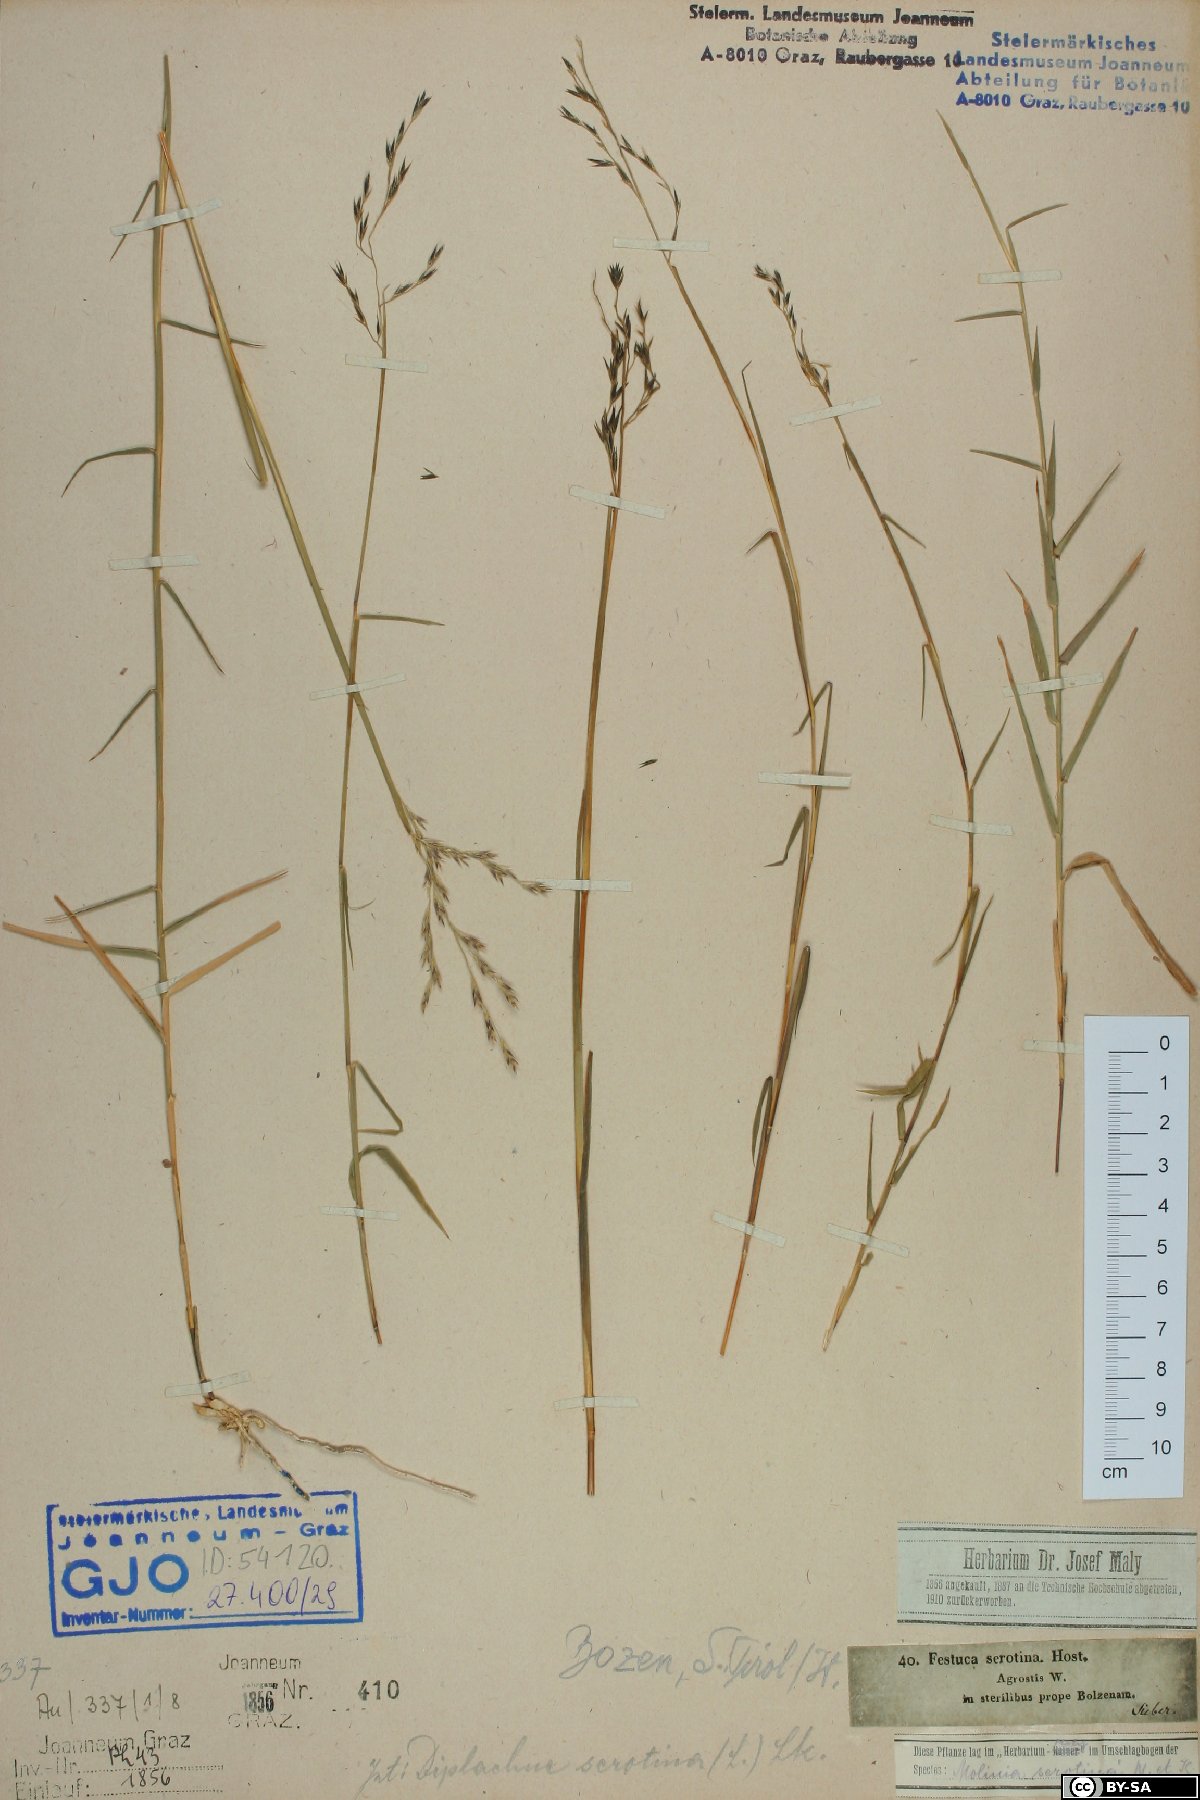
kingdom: Plantae
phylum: Tracheophyta
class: Liliopsida
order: Poales
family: Poaceae
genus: Cleistogenes
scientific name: Cleistogenes serotina
